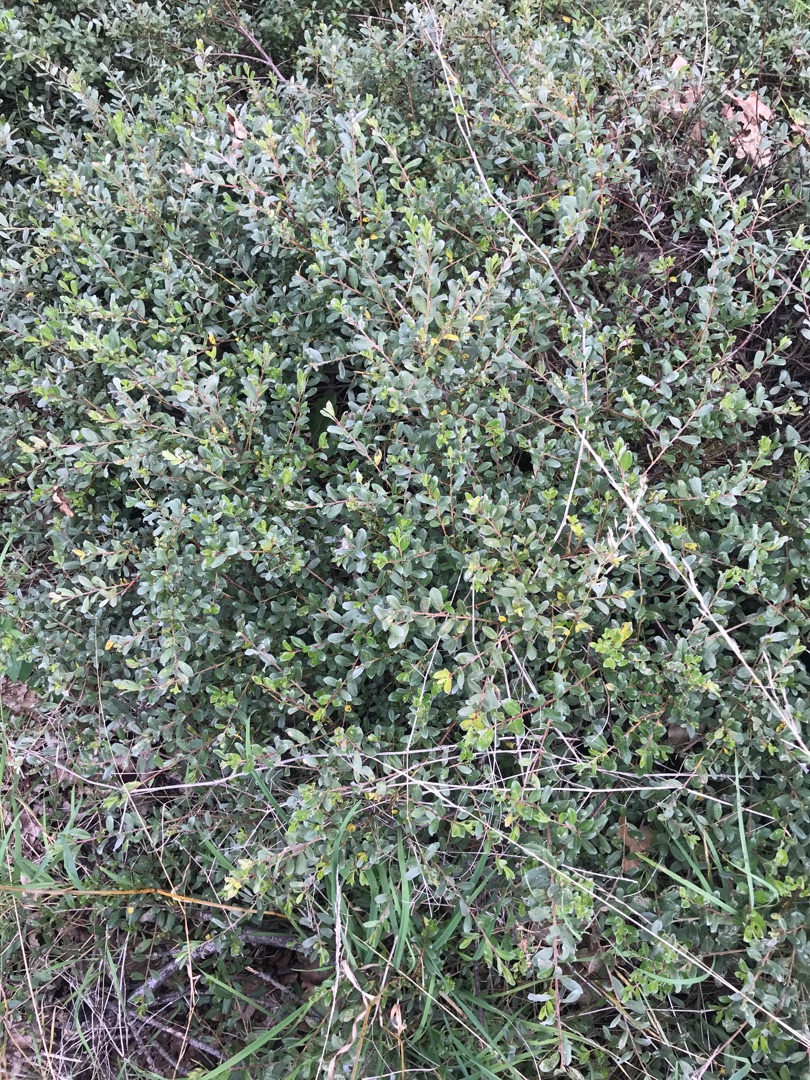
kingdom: Plantae
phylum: Tracheophyta
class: Magnoliopsida
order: Malpighiales
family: Salicaceae
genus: Salix
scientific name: Salix repens
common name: Gråris
